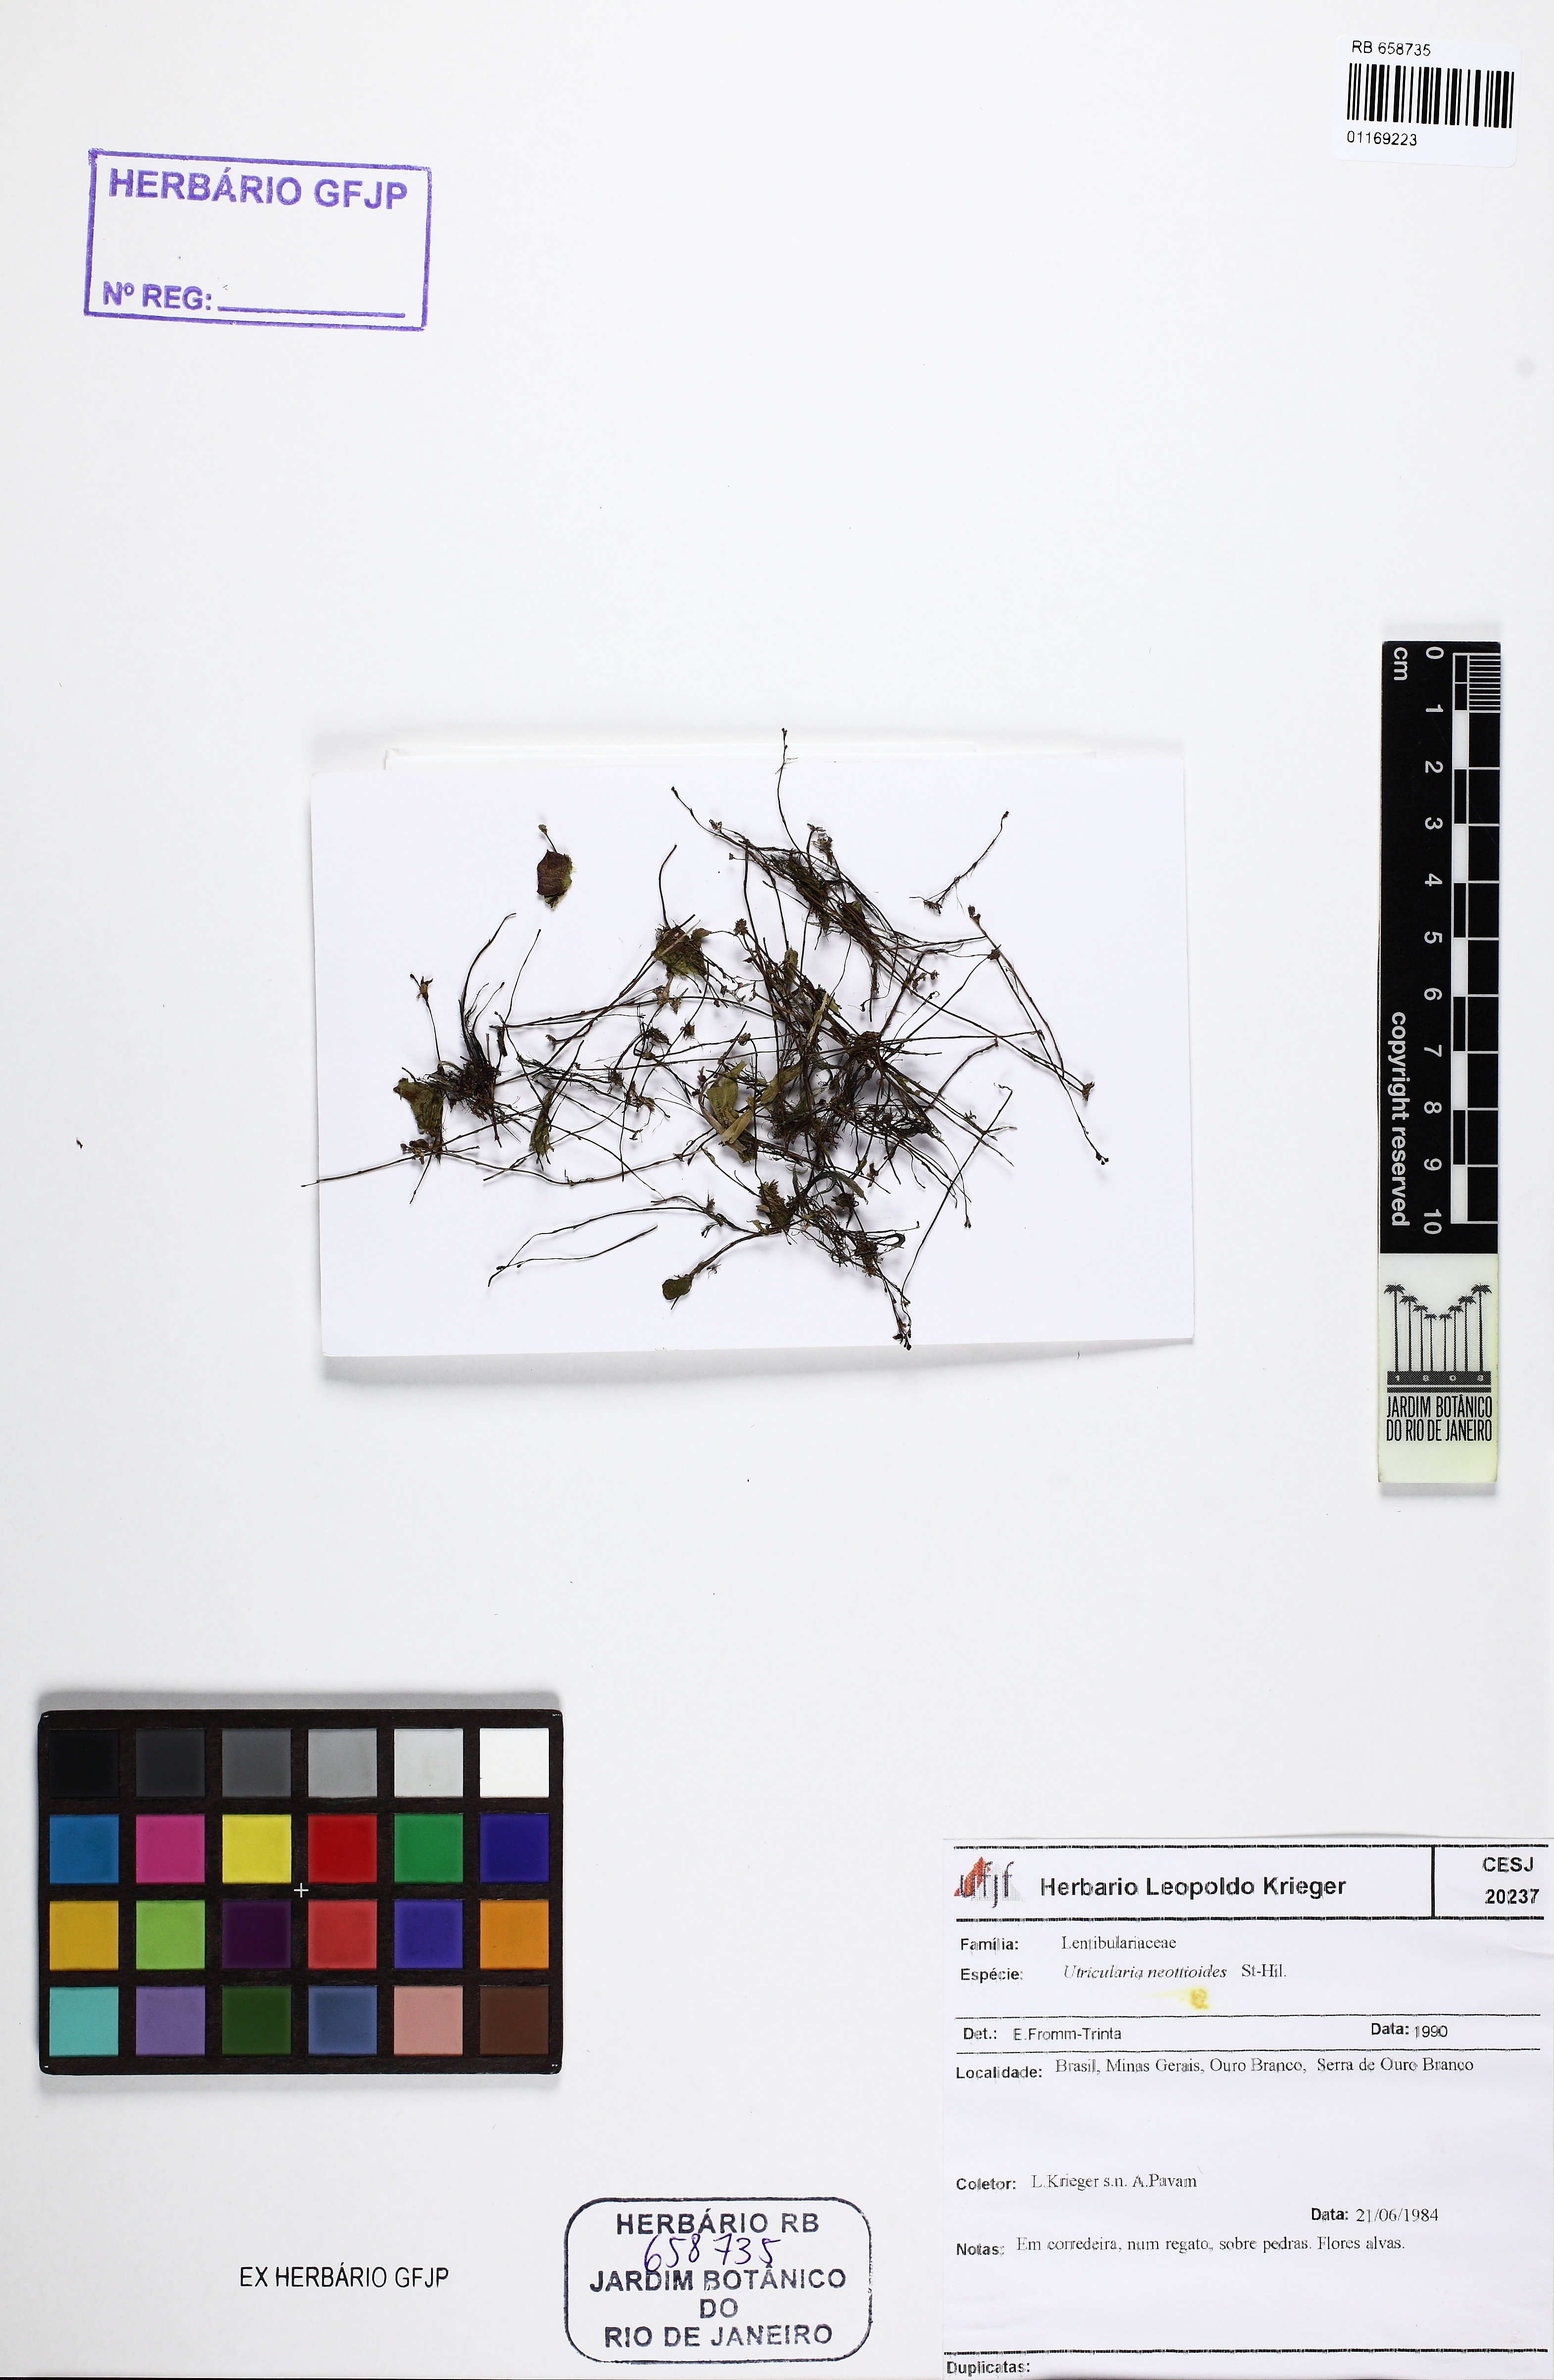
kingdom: Plantae
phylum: Tracheophyta
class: Magnoliopsida
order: Lamiales
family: Lentibulariaceae
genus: Utricularia
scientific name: Utricularia neottioides
